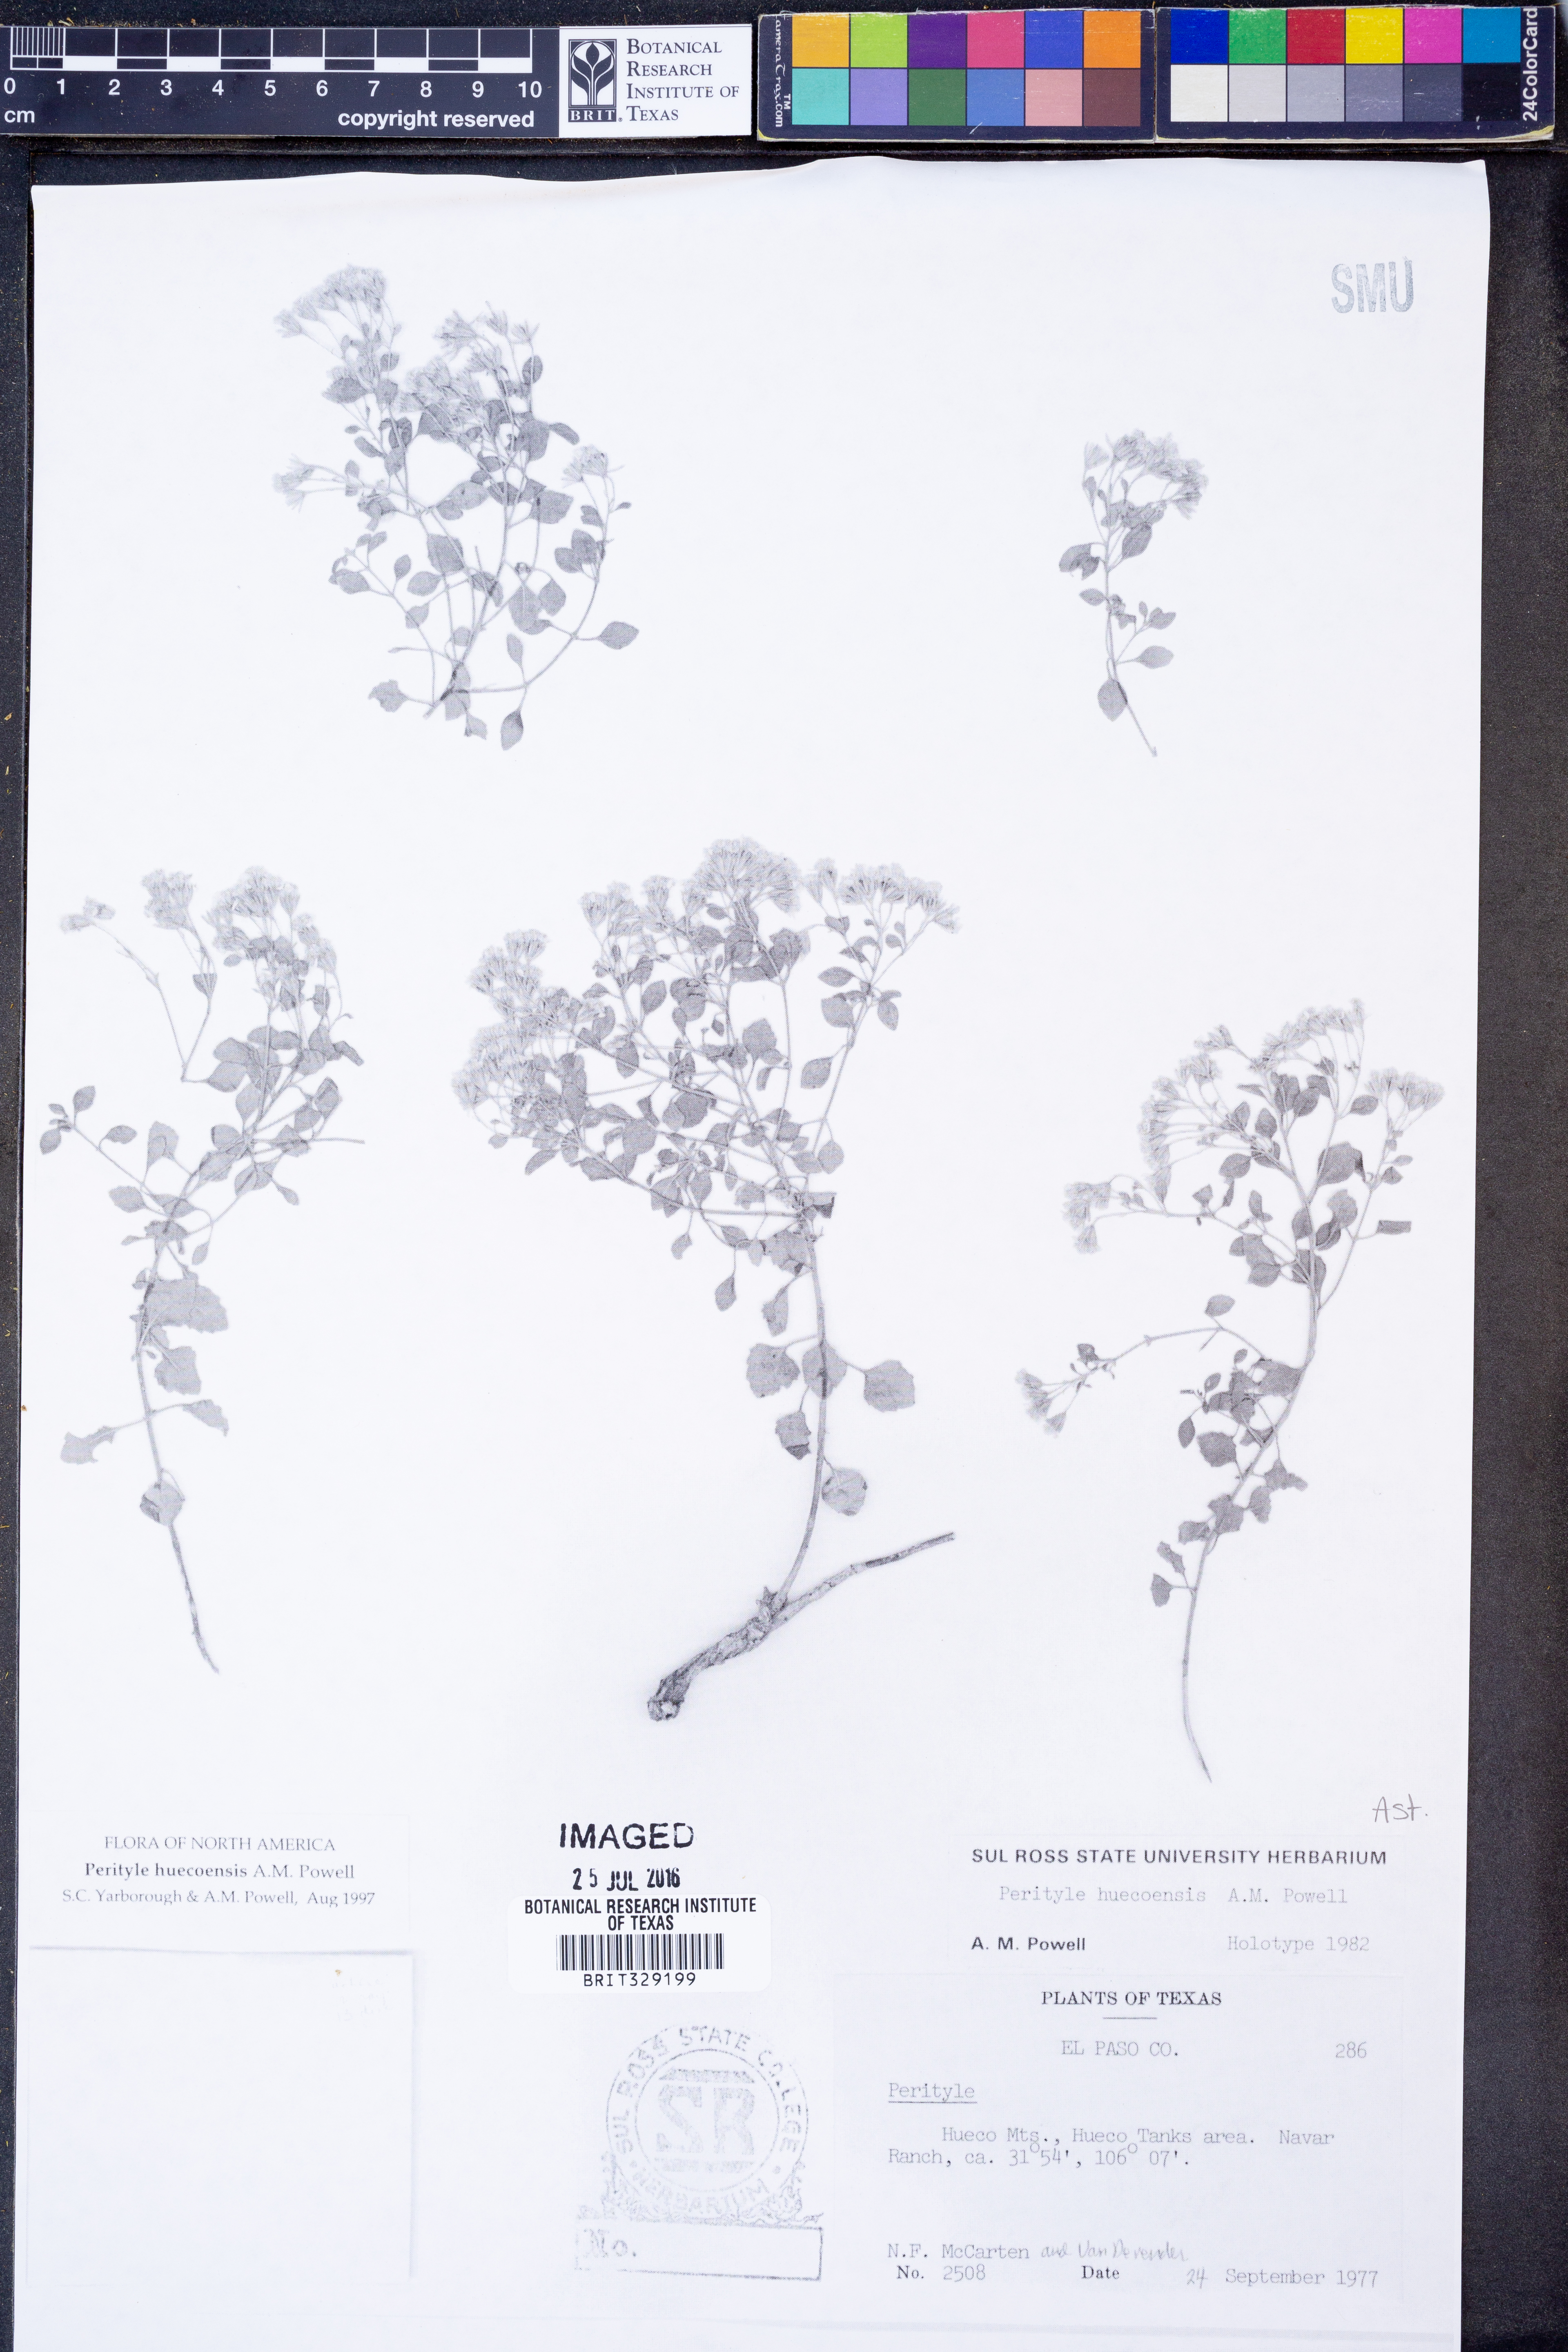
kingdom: Plantae
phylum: Tracheophyta
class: Magnoliopsida
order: Asterales
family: Asteraceae
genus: Laphamia
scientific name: Laphamia huecoensis
